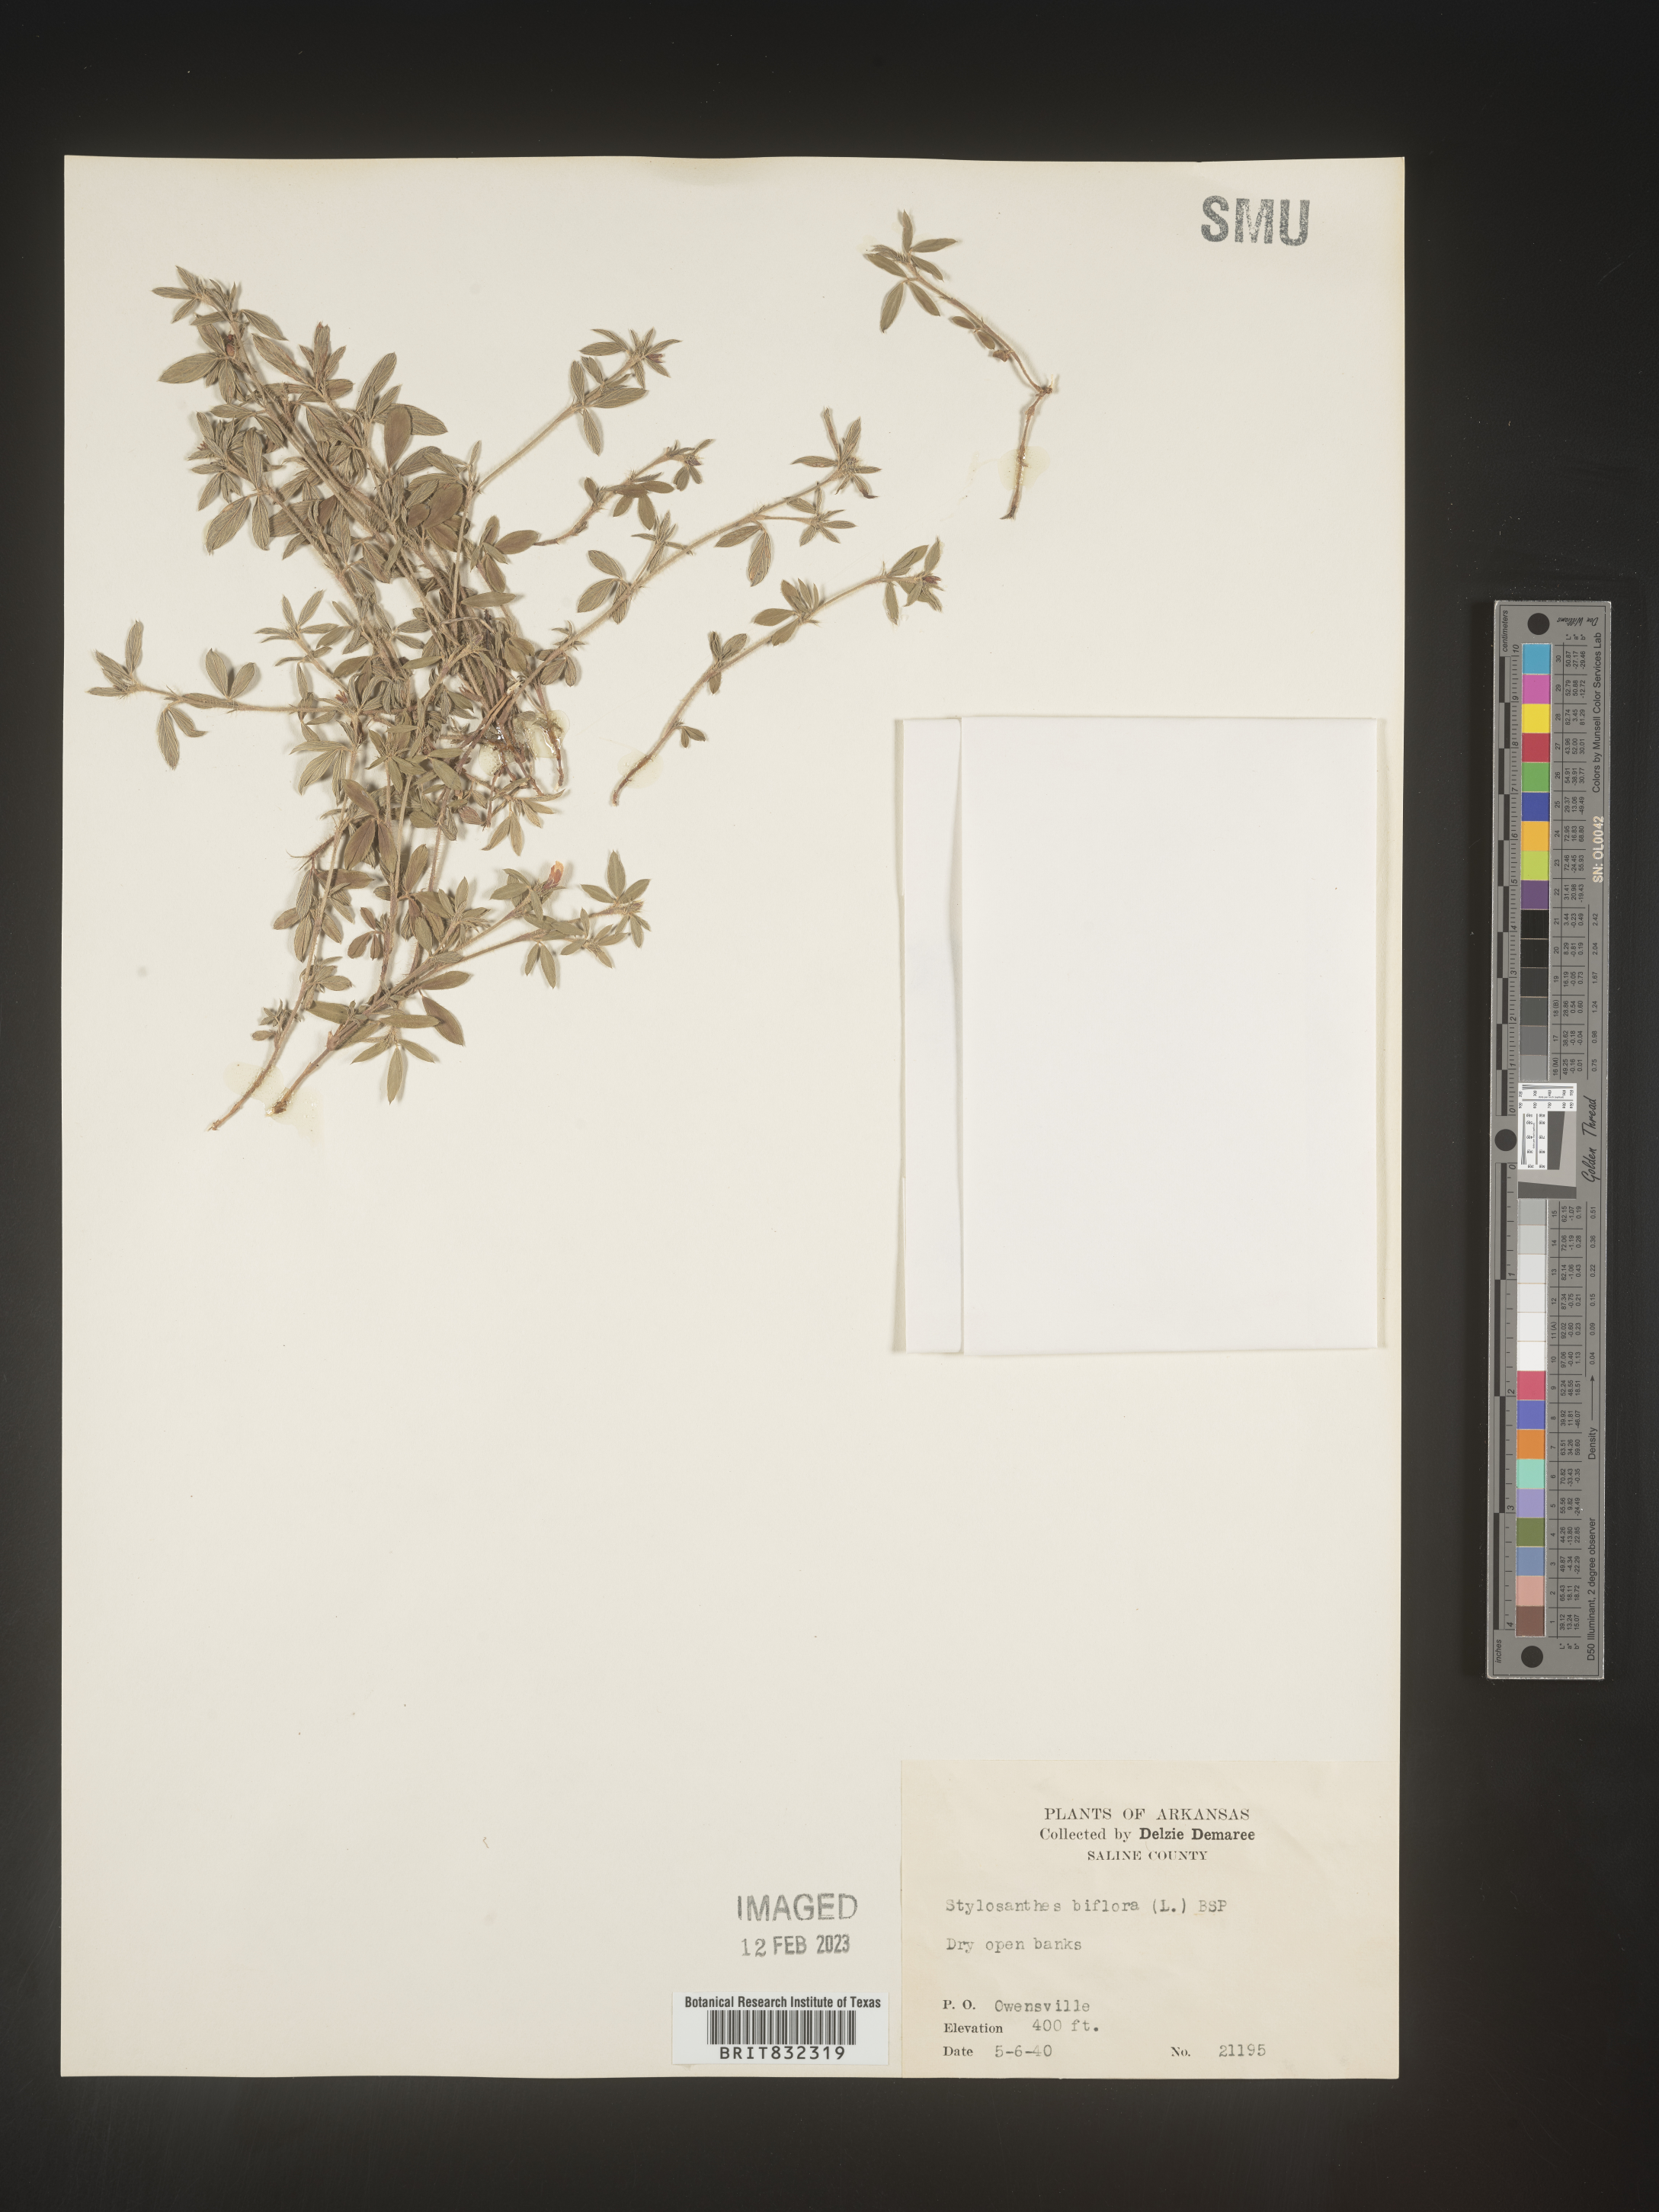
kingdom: Plantae
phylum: Tracheophyta
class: Magnoliopsida
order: Fabales
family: Fabaceae
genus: Stylosanthes
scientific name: Stylosanthes biflora
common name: Two-flower pencil-flower
